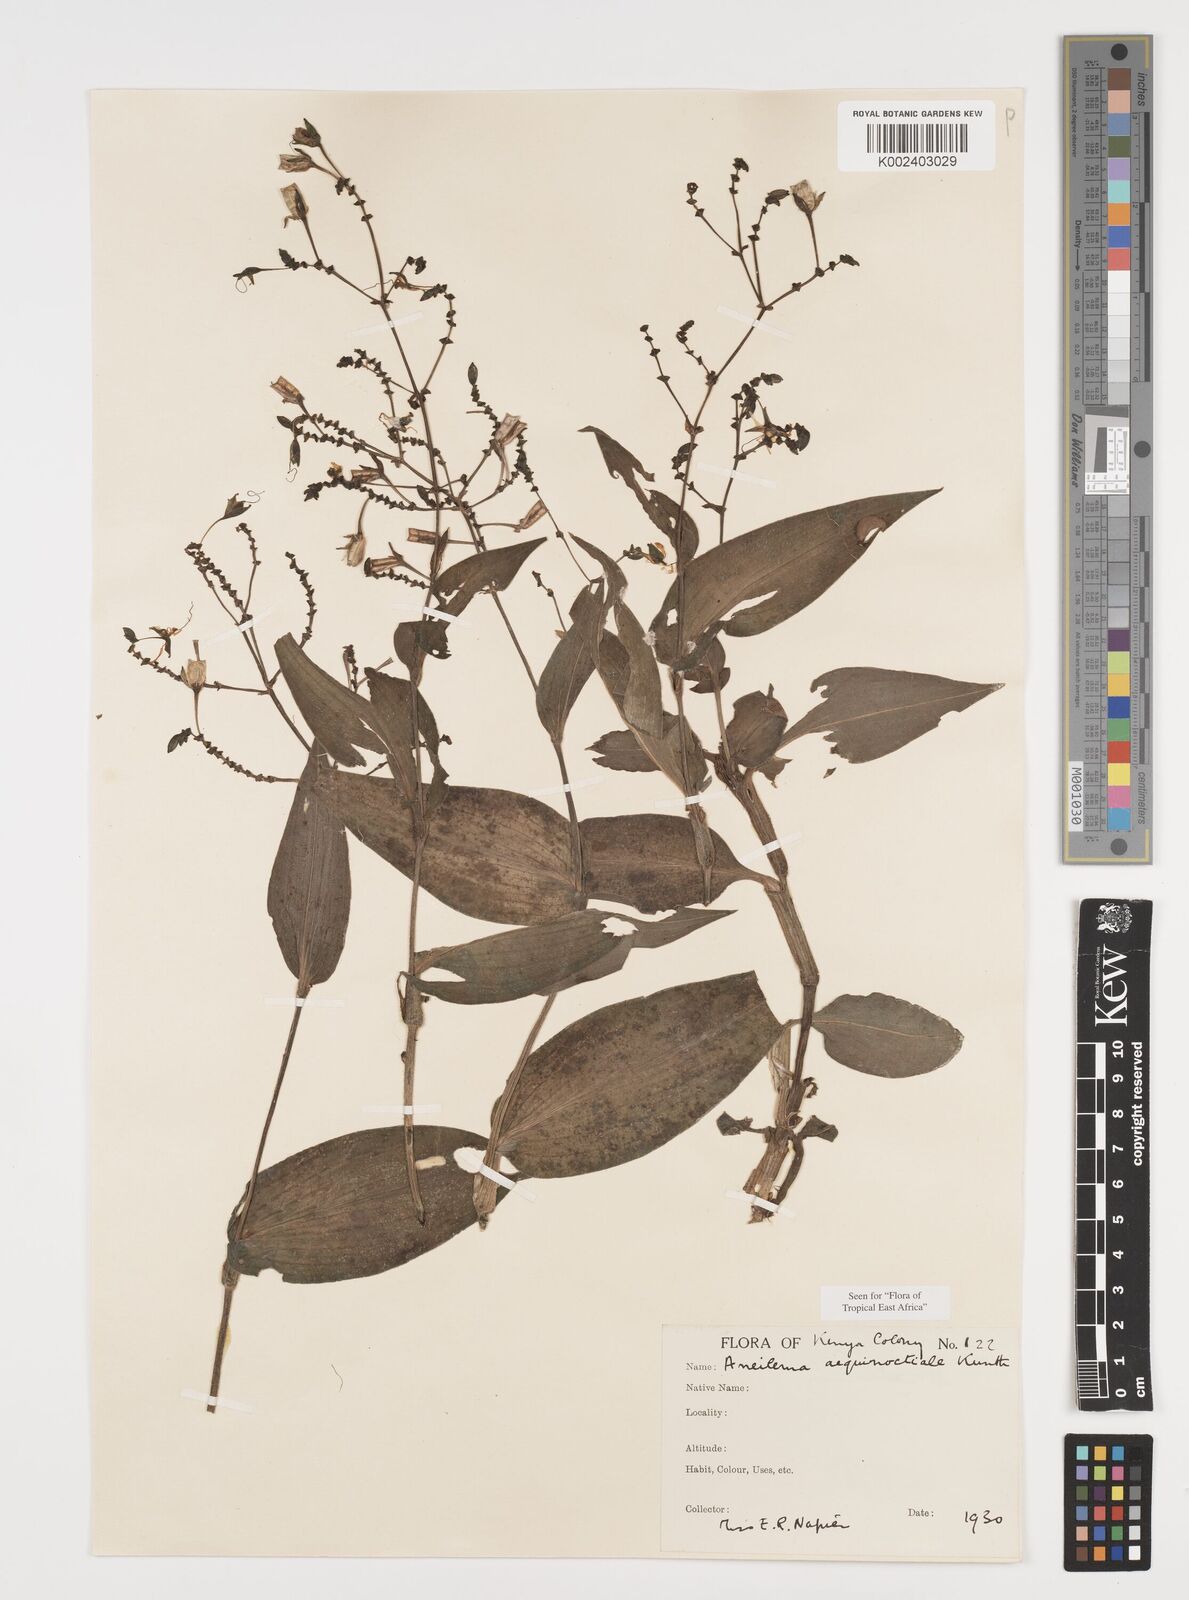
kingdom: Plantae
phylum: Tracheophyta
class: Liliopsida
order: Commelinales
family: Commelinaceae
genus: Aneilema
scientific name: Aneilema aequinoctiale
